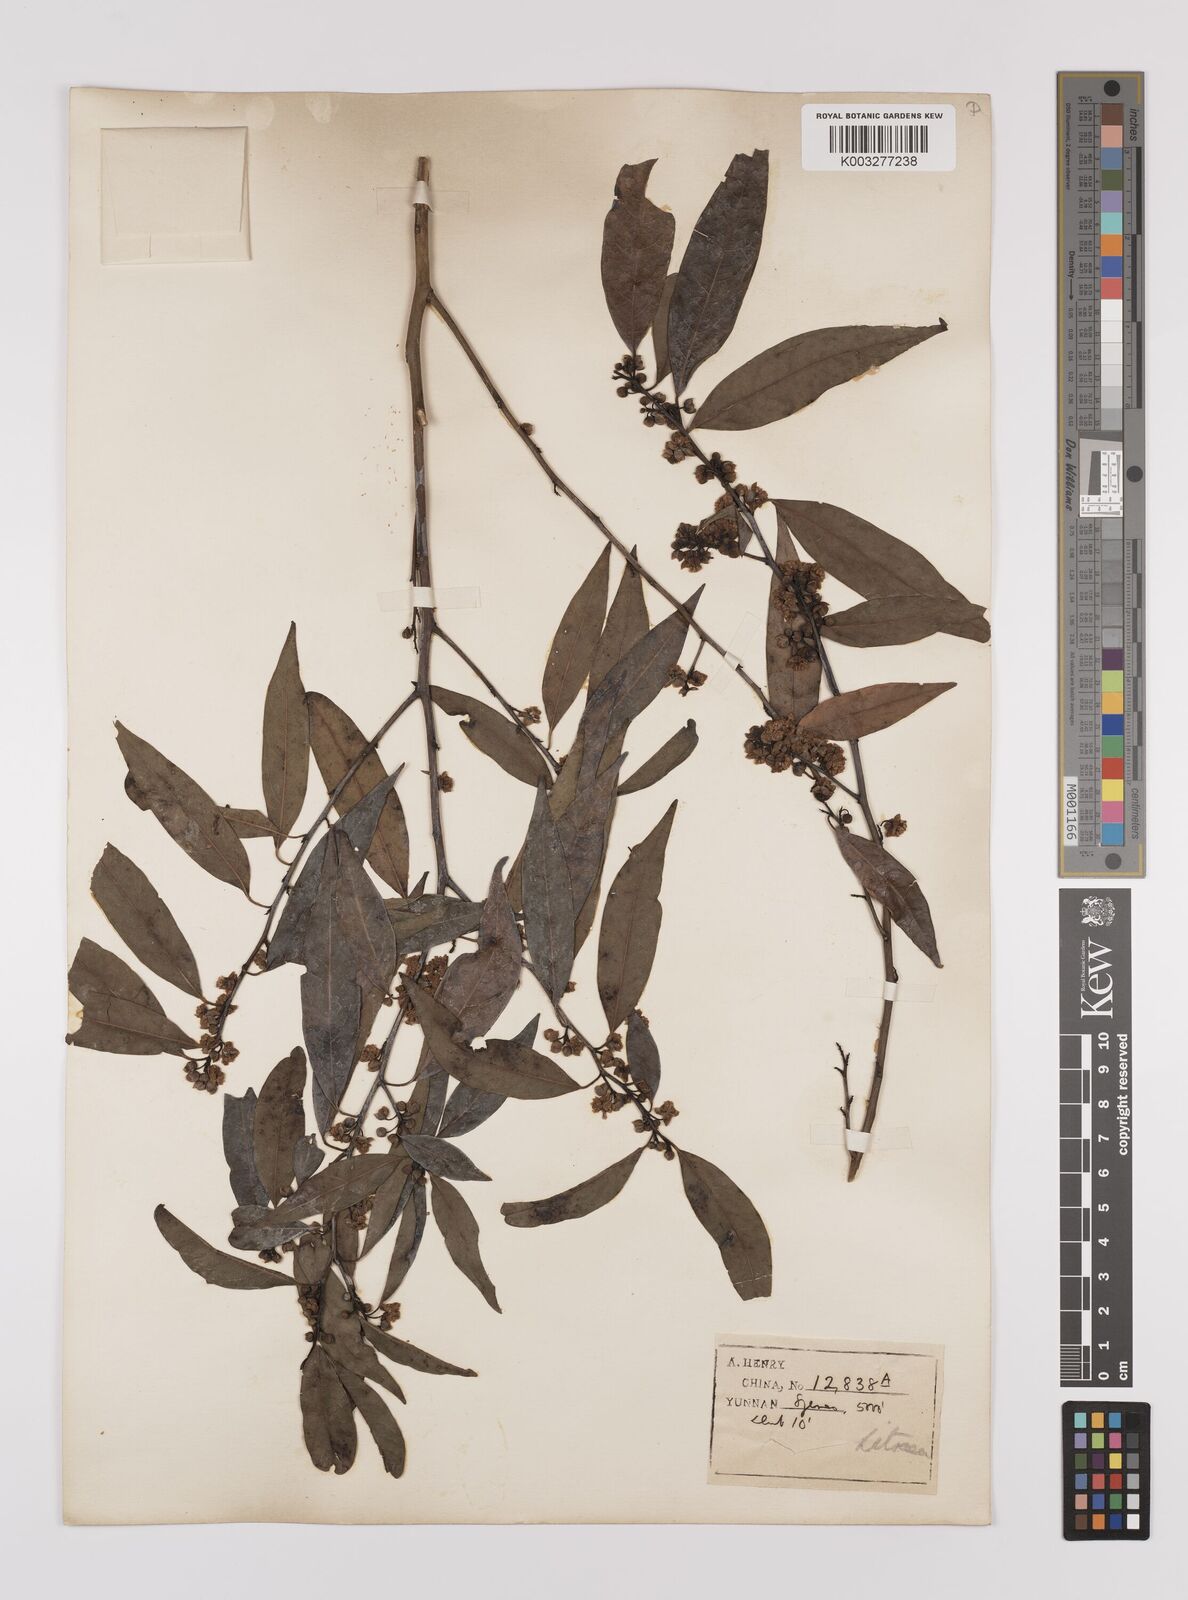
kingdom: Plantae
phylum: Tracheophyta
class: Magnoliopsida
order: Laurales
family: Lauraceae
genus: Lindera
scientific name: Lindera pipericarpa
